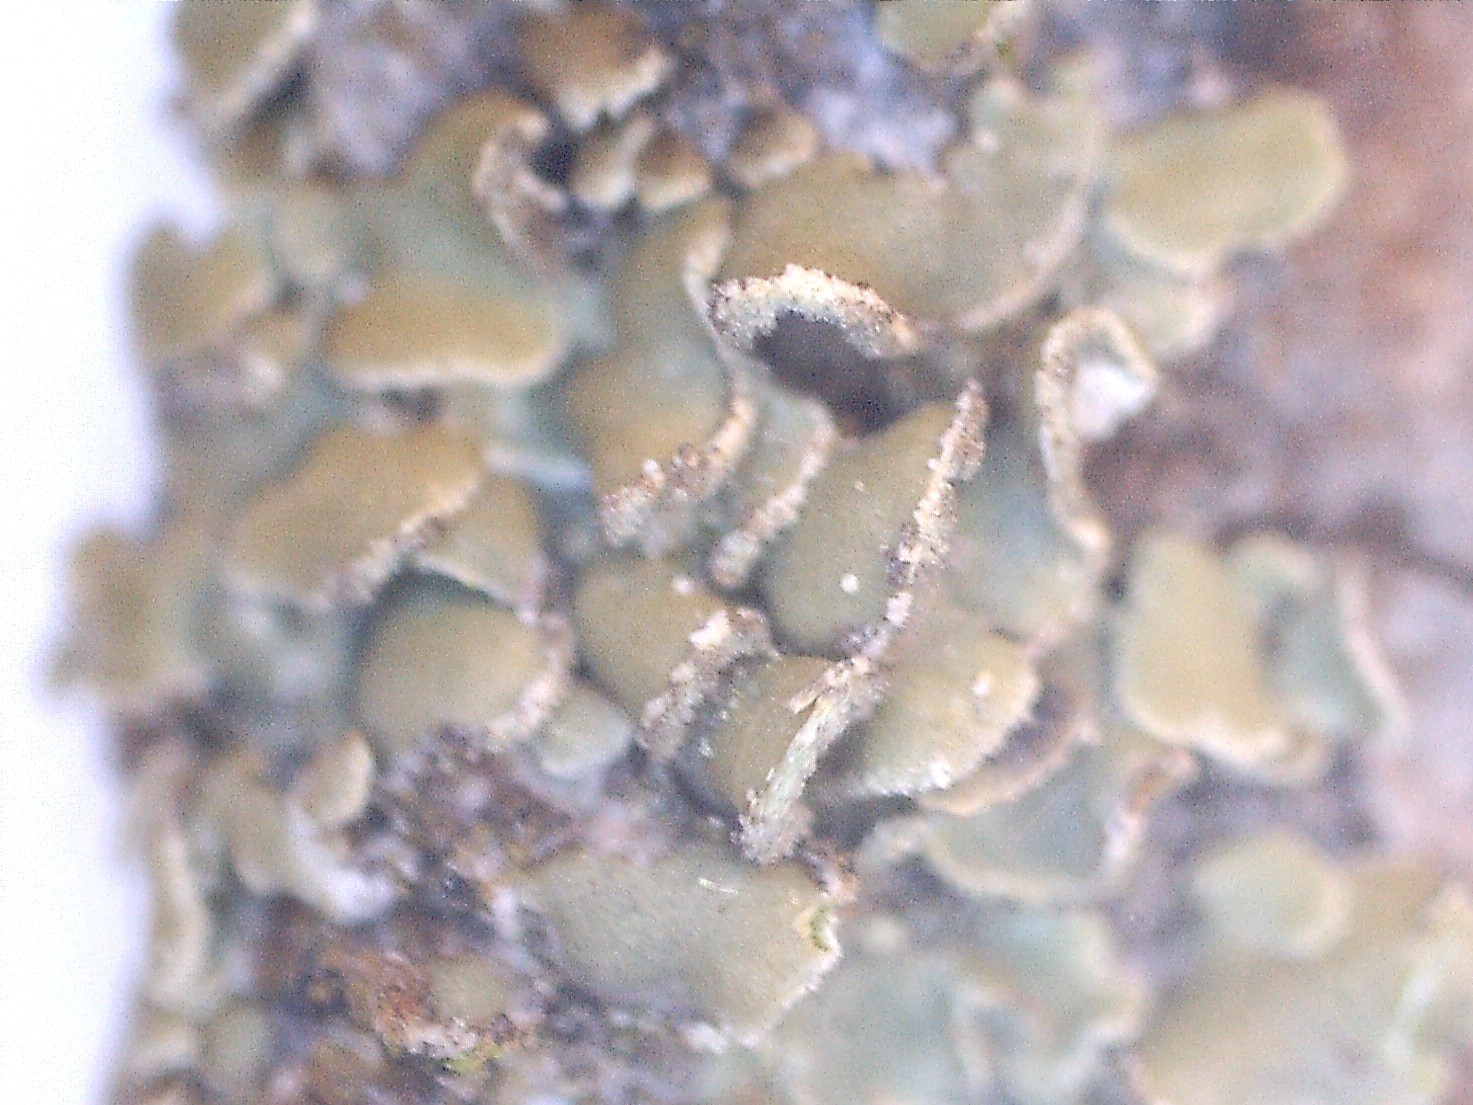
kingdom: Fungi
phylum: Ascomycota
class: Lecanoromycetes
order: Umbilicariales
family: Ophioparmaceae
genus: Hypocenomyce
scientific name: Hypocenomyce scalaris
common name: småskællet muslinglav
